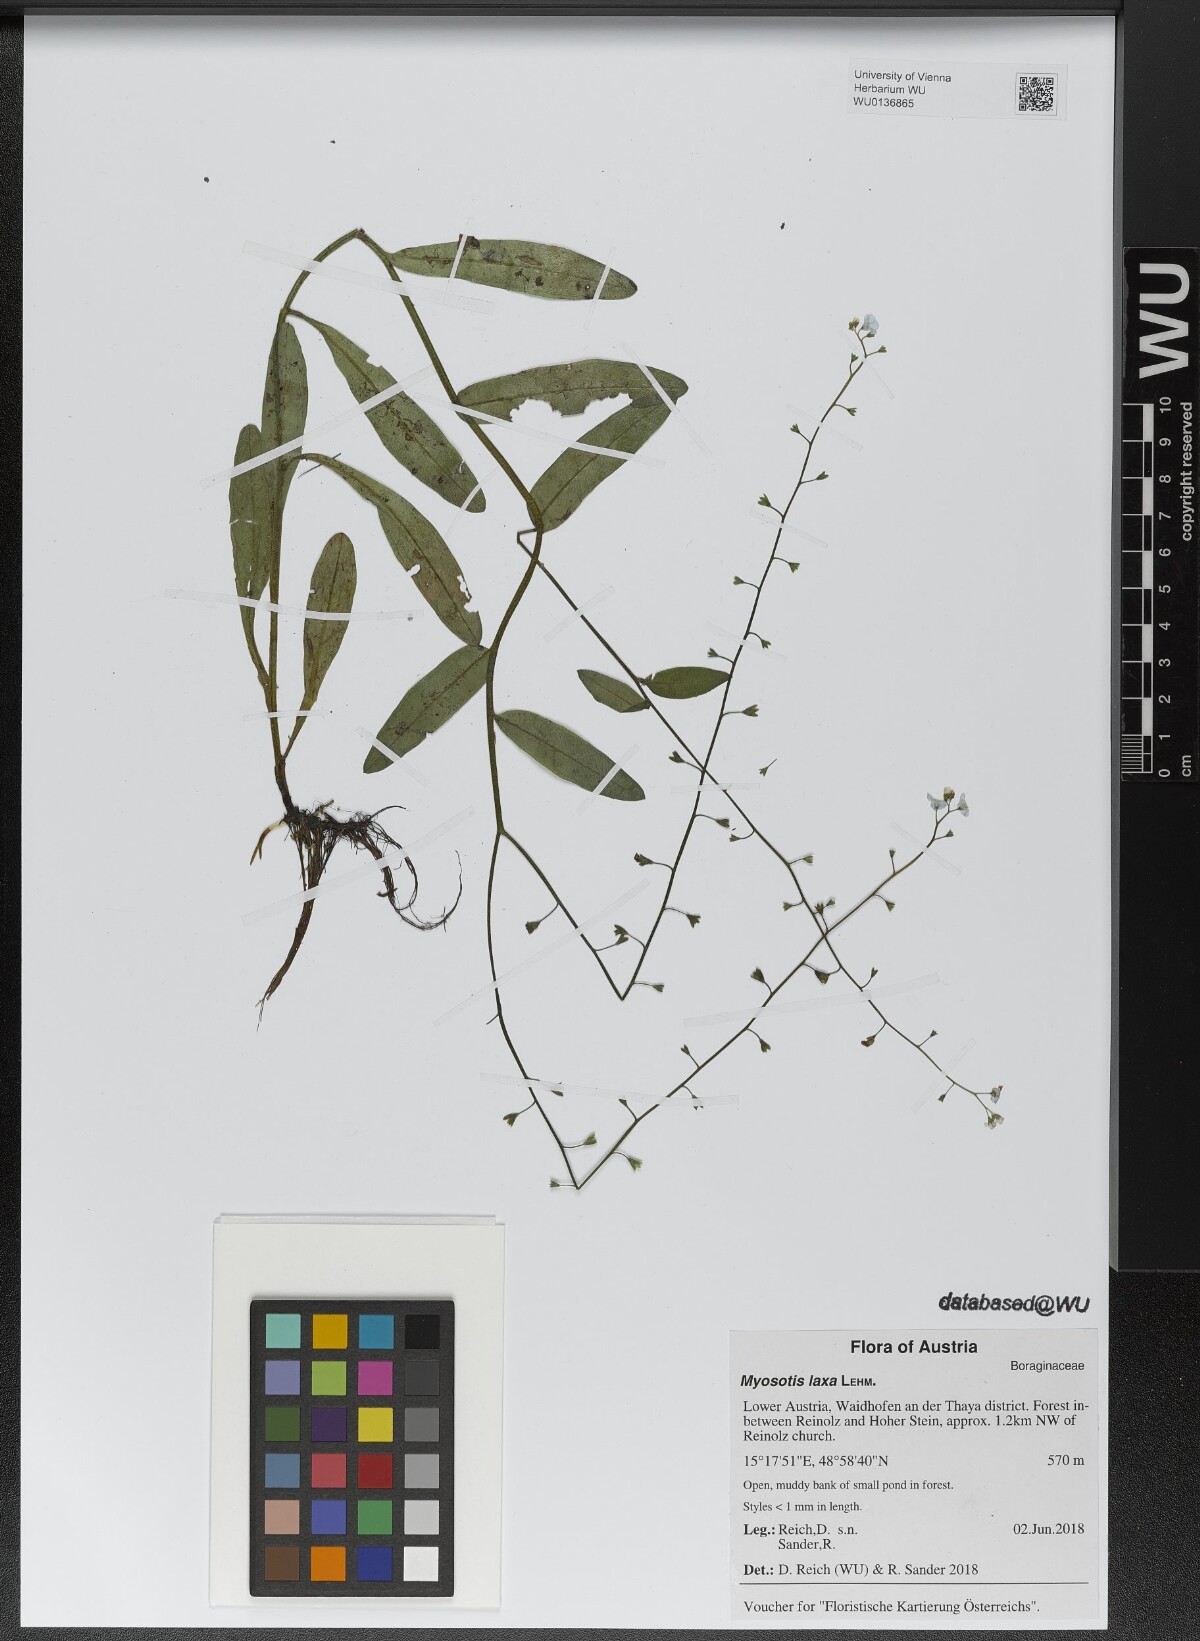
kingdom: Plantae
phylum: Tracheophyta
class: Magnoliopsida
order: Boraginales
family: Boraginaceae
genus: Myosotis
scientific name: Myosotis laxa
